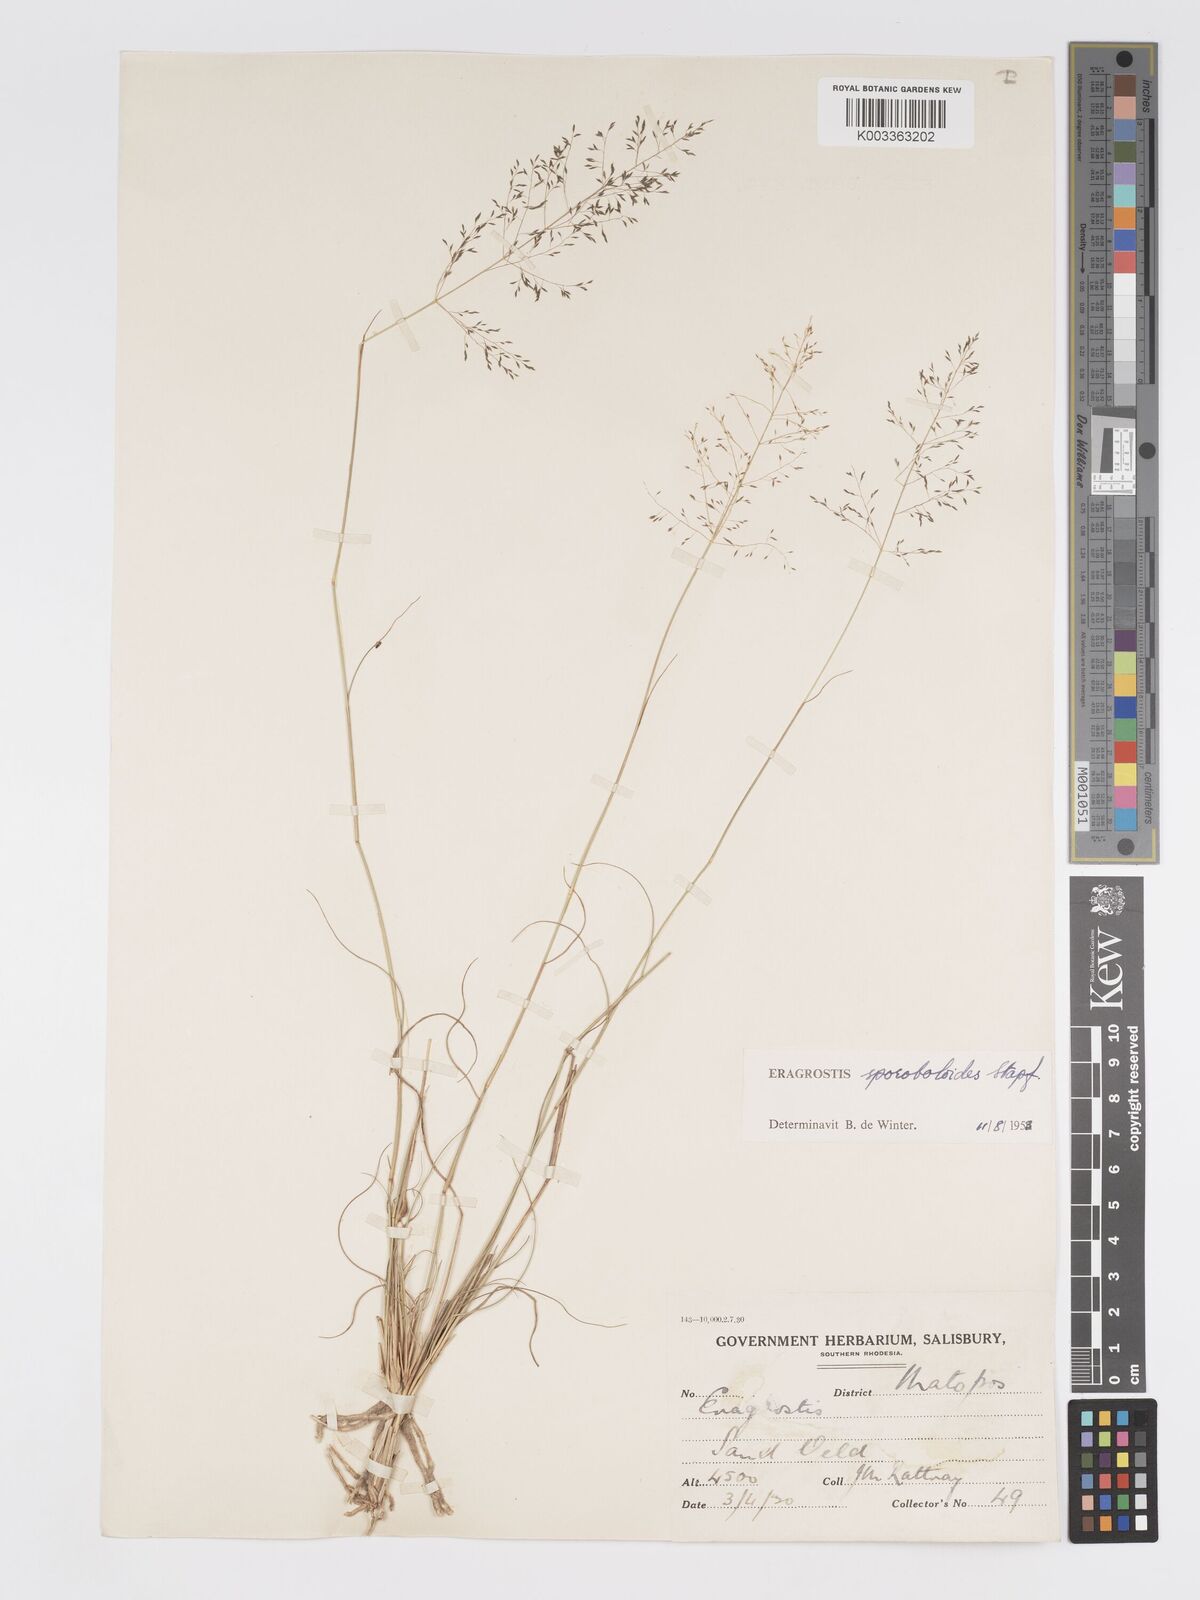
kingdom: Plantae
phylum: Tracheophyta
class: Liliopsida
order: Poales
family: Poaceae
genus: Eragrostis
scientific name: Eragrostis stapfii
